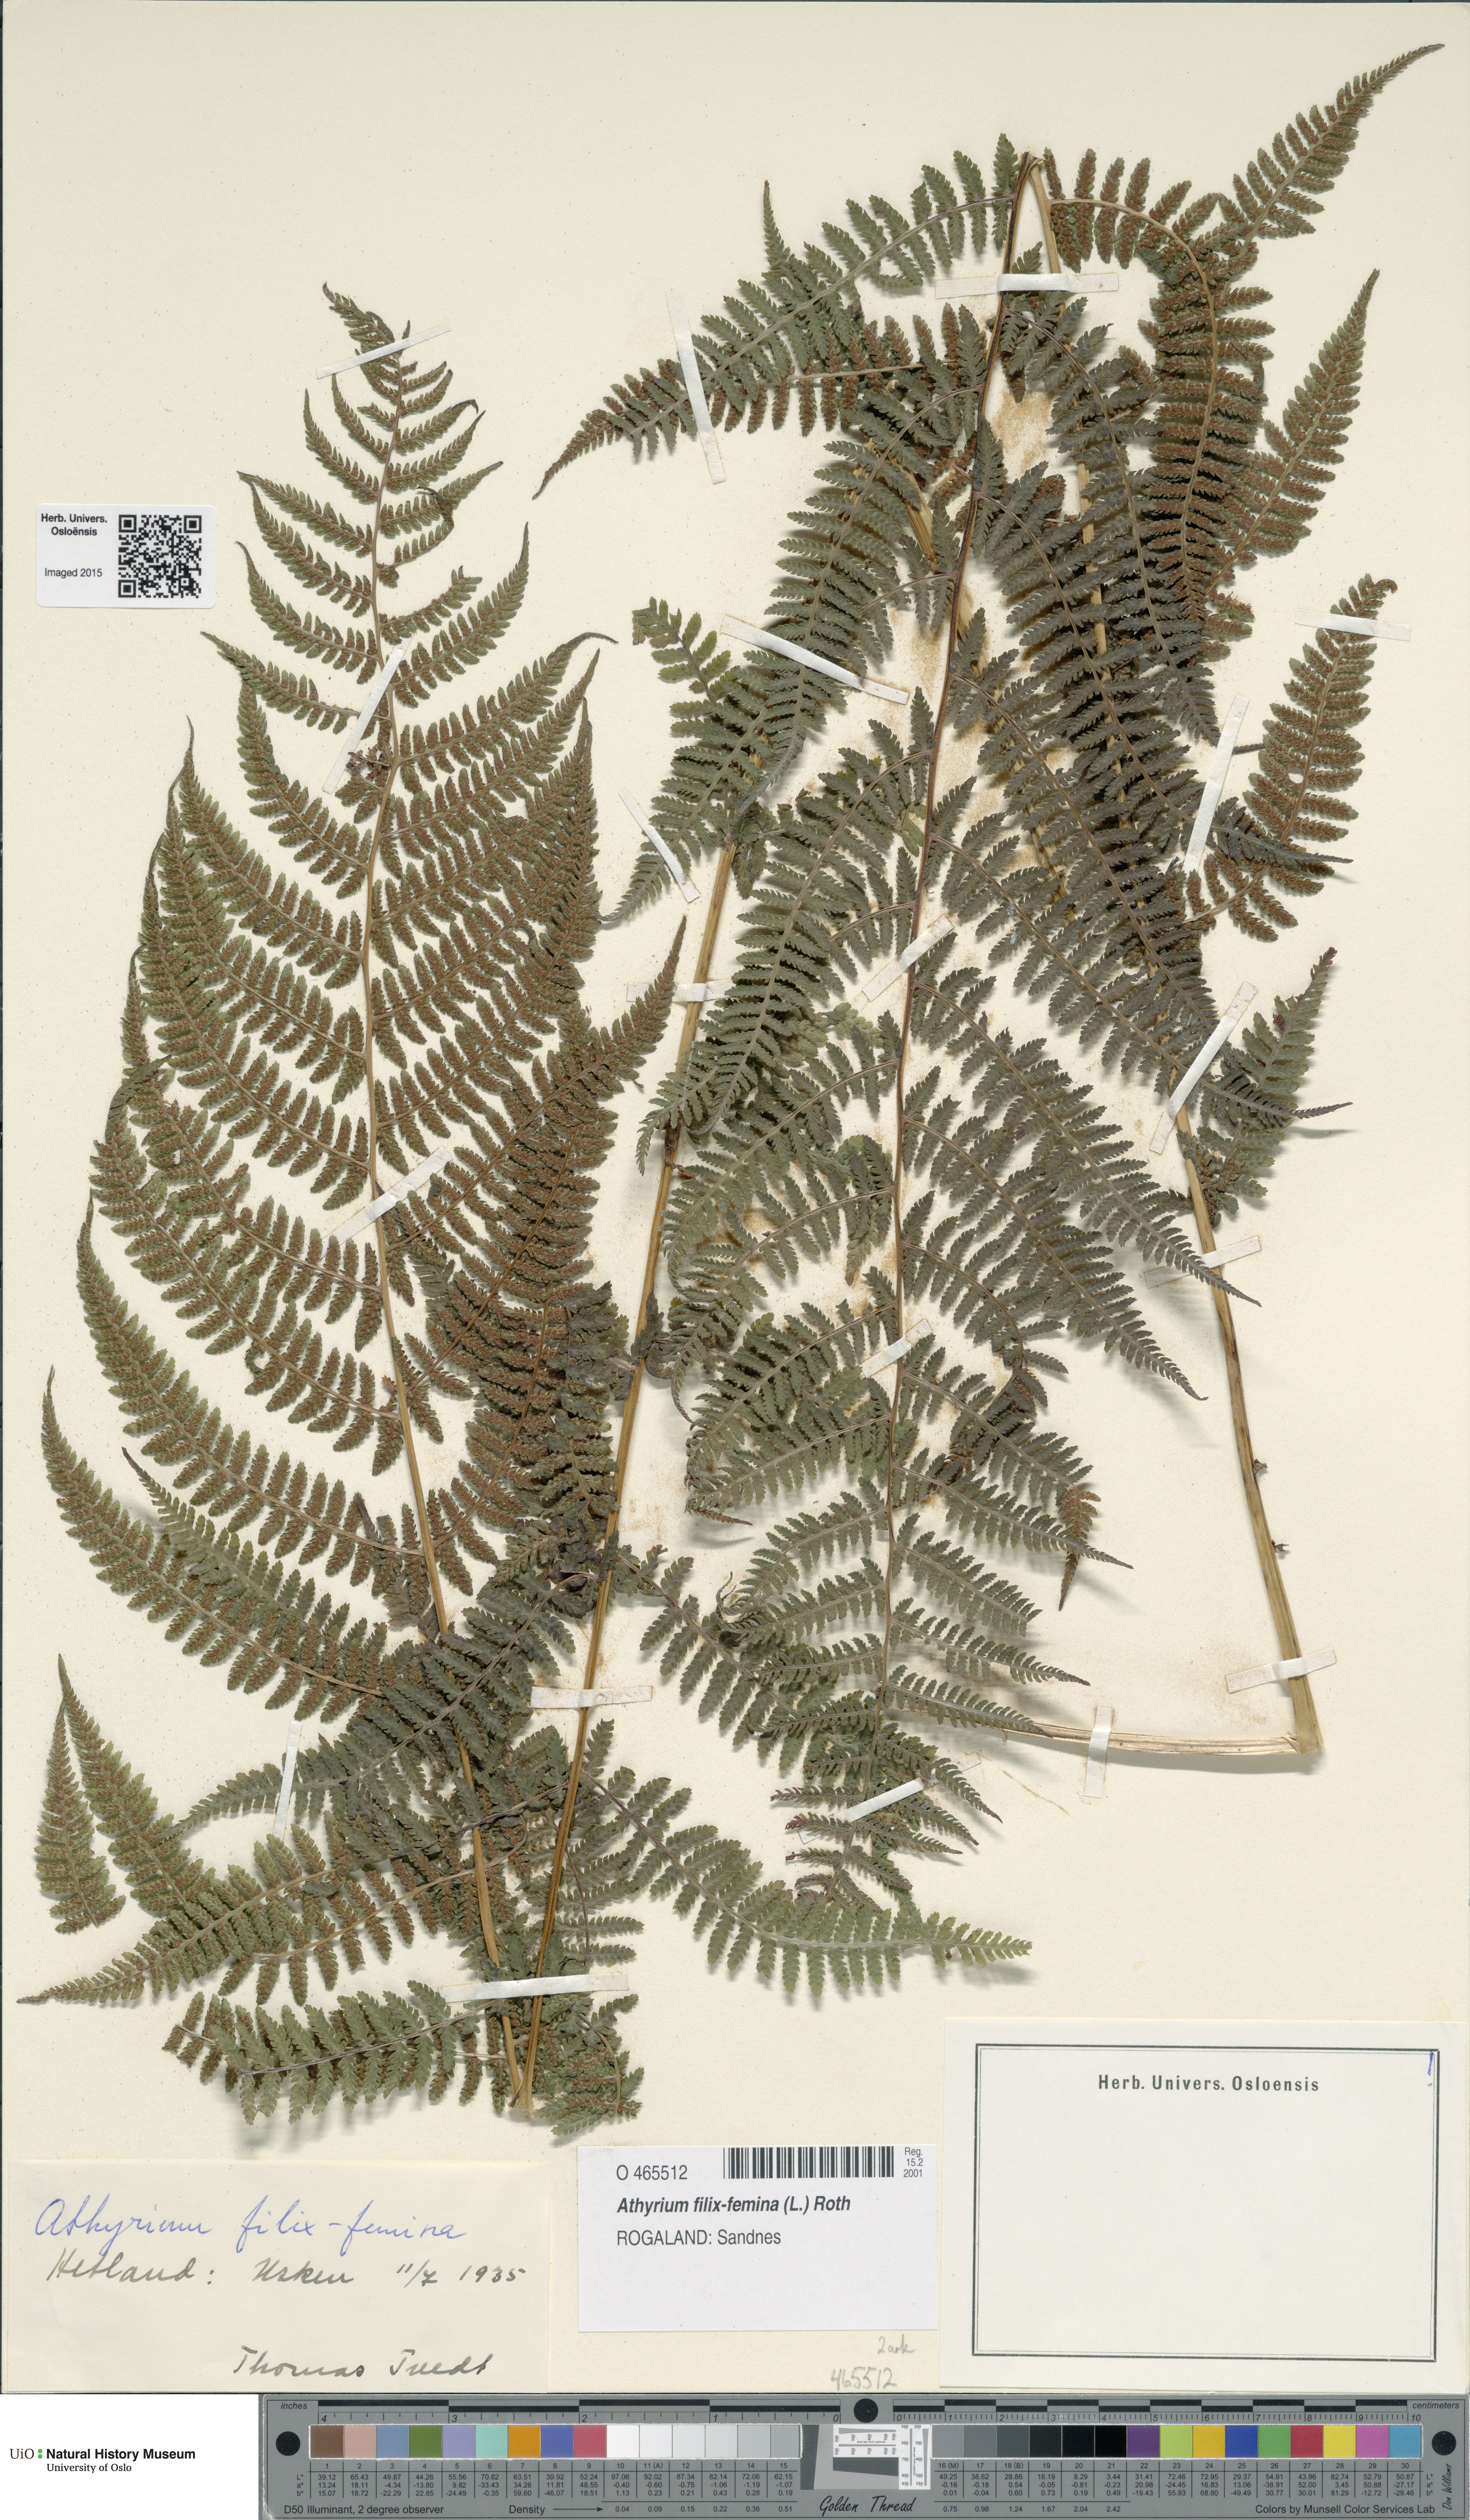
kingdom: Plantae
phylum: Tracheophyta
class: Polypodiopsida
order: Polypodiales
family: Athyriaceae
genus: Athyrium
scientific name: Athyrium filix-femina
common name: Lady fern
